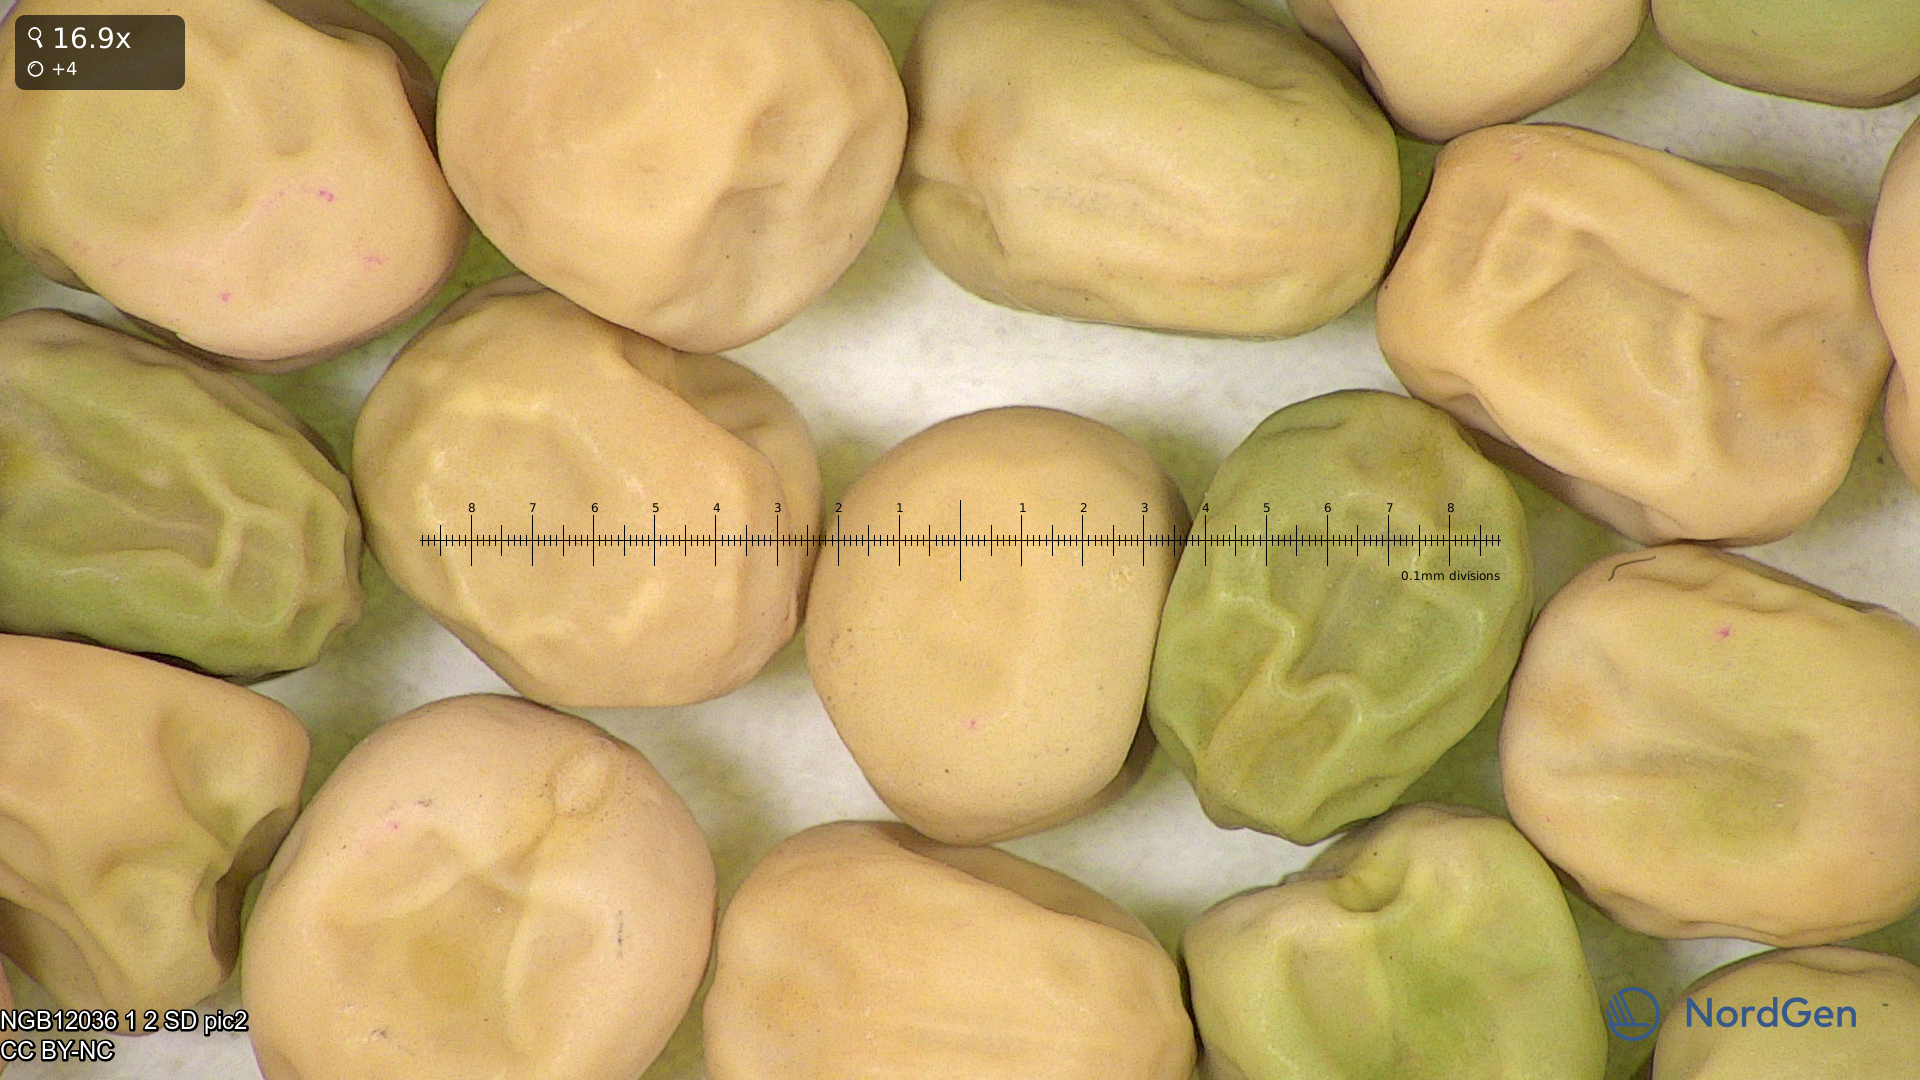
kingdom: Plantae
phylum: Tracheophyta
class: Magnoliopsida
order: Fabales
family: Fabaceae
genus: Lathyrus
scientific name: Lathyrus oleraceus
